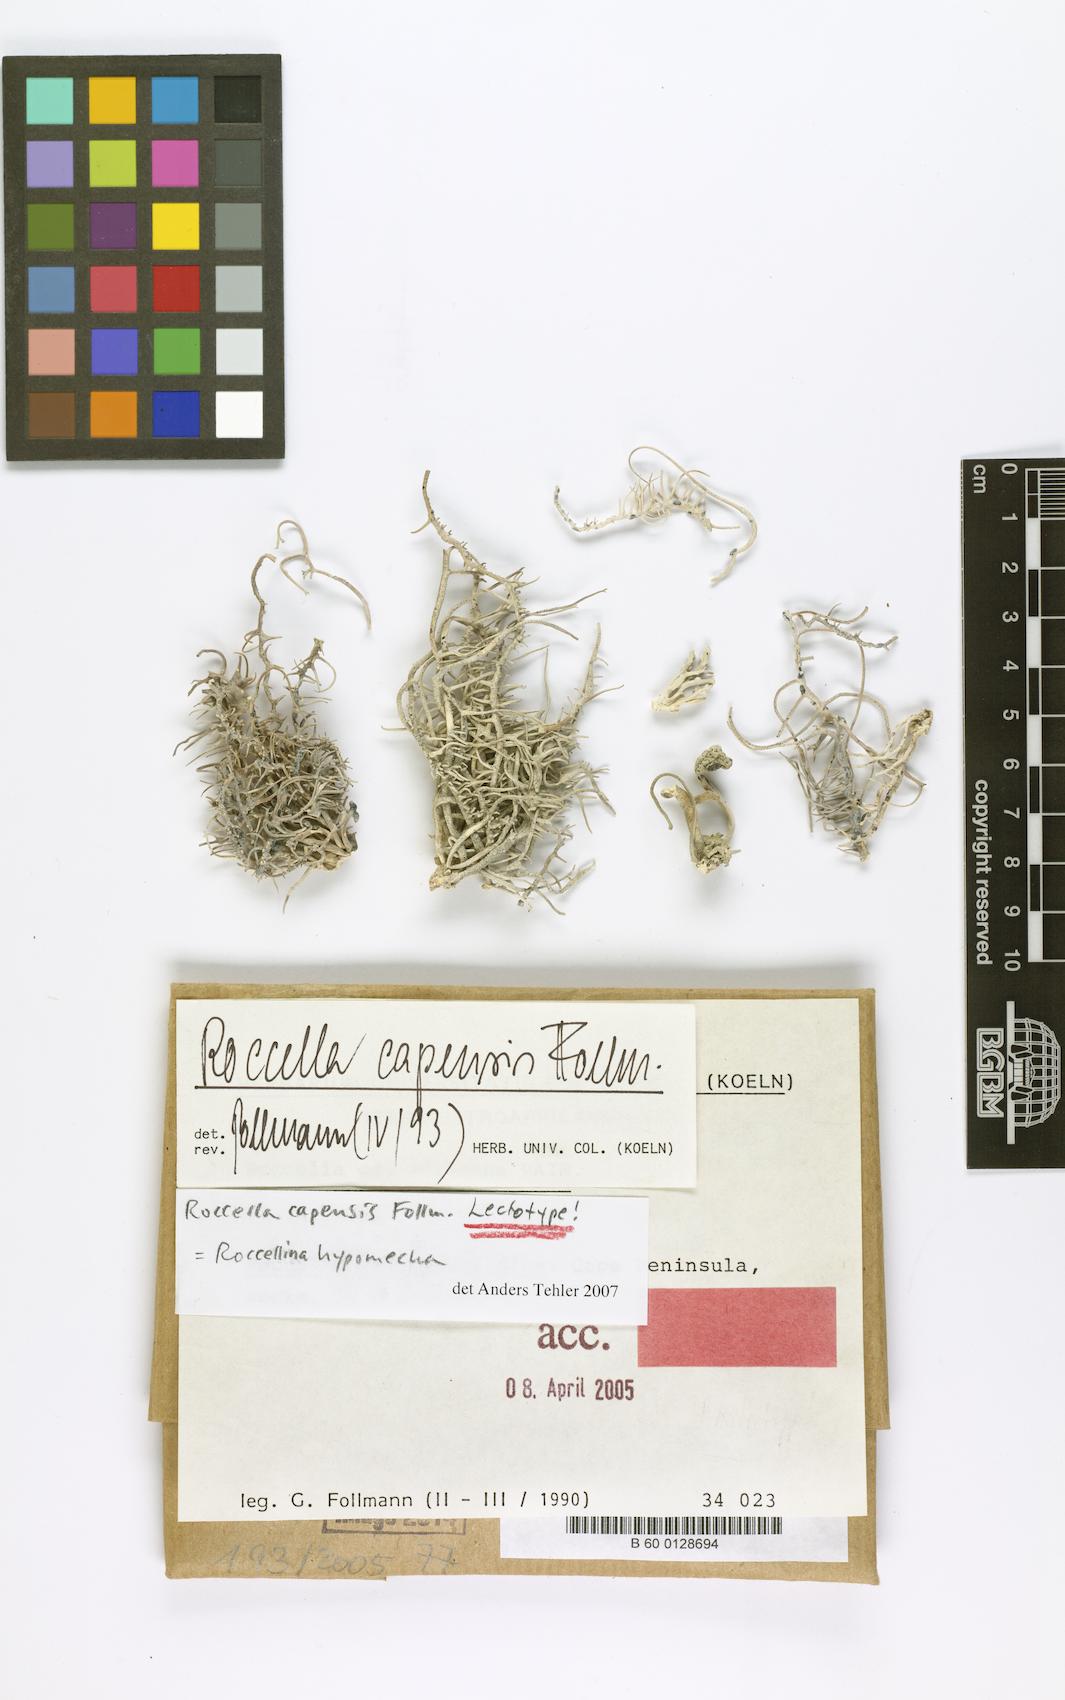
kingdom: Fungi
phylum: Ascomycota
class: Arthoniomycetes
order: Arthoniales
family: Roccellaceae
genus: Roccellina
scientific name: Roccellina capensis
